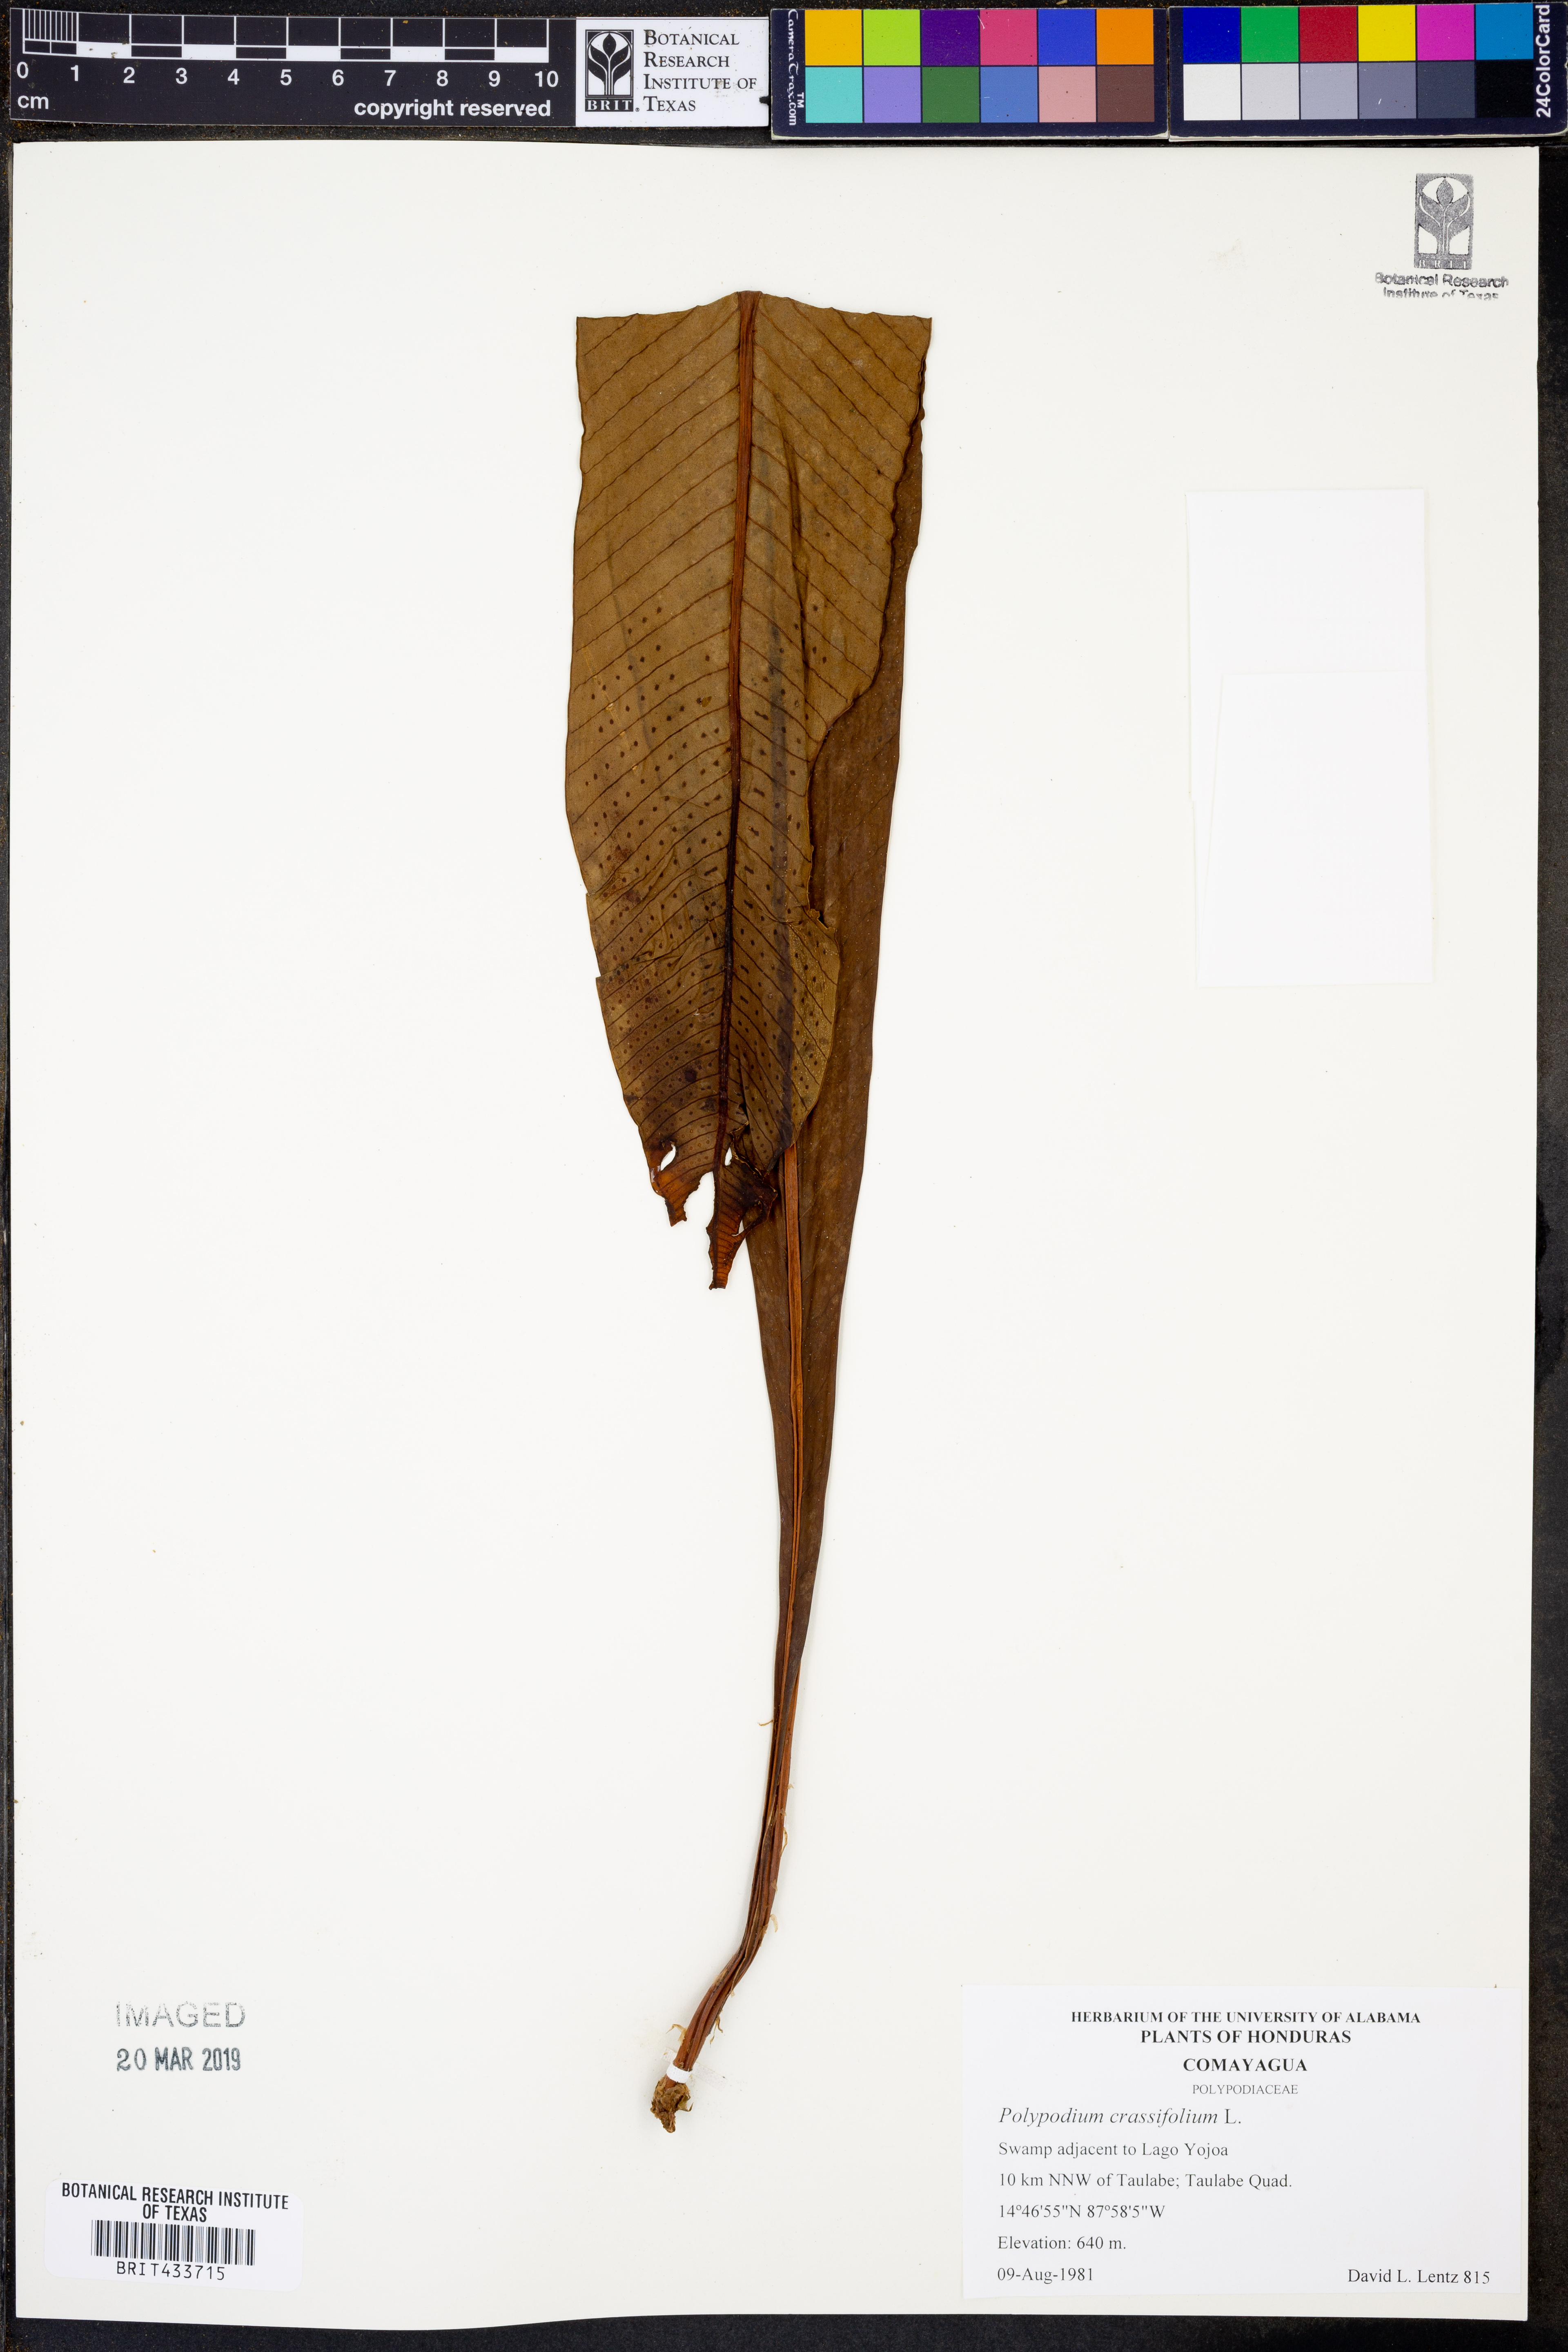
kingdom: Plantae
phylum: Tracheophyta
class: Polypodiopsida
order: Polypodiales
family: Polypodiaceae
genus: Niphidium
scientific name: Niphidium crassifolium
